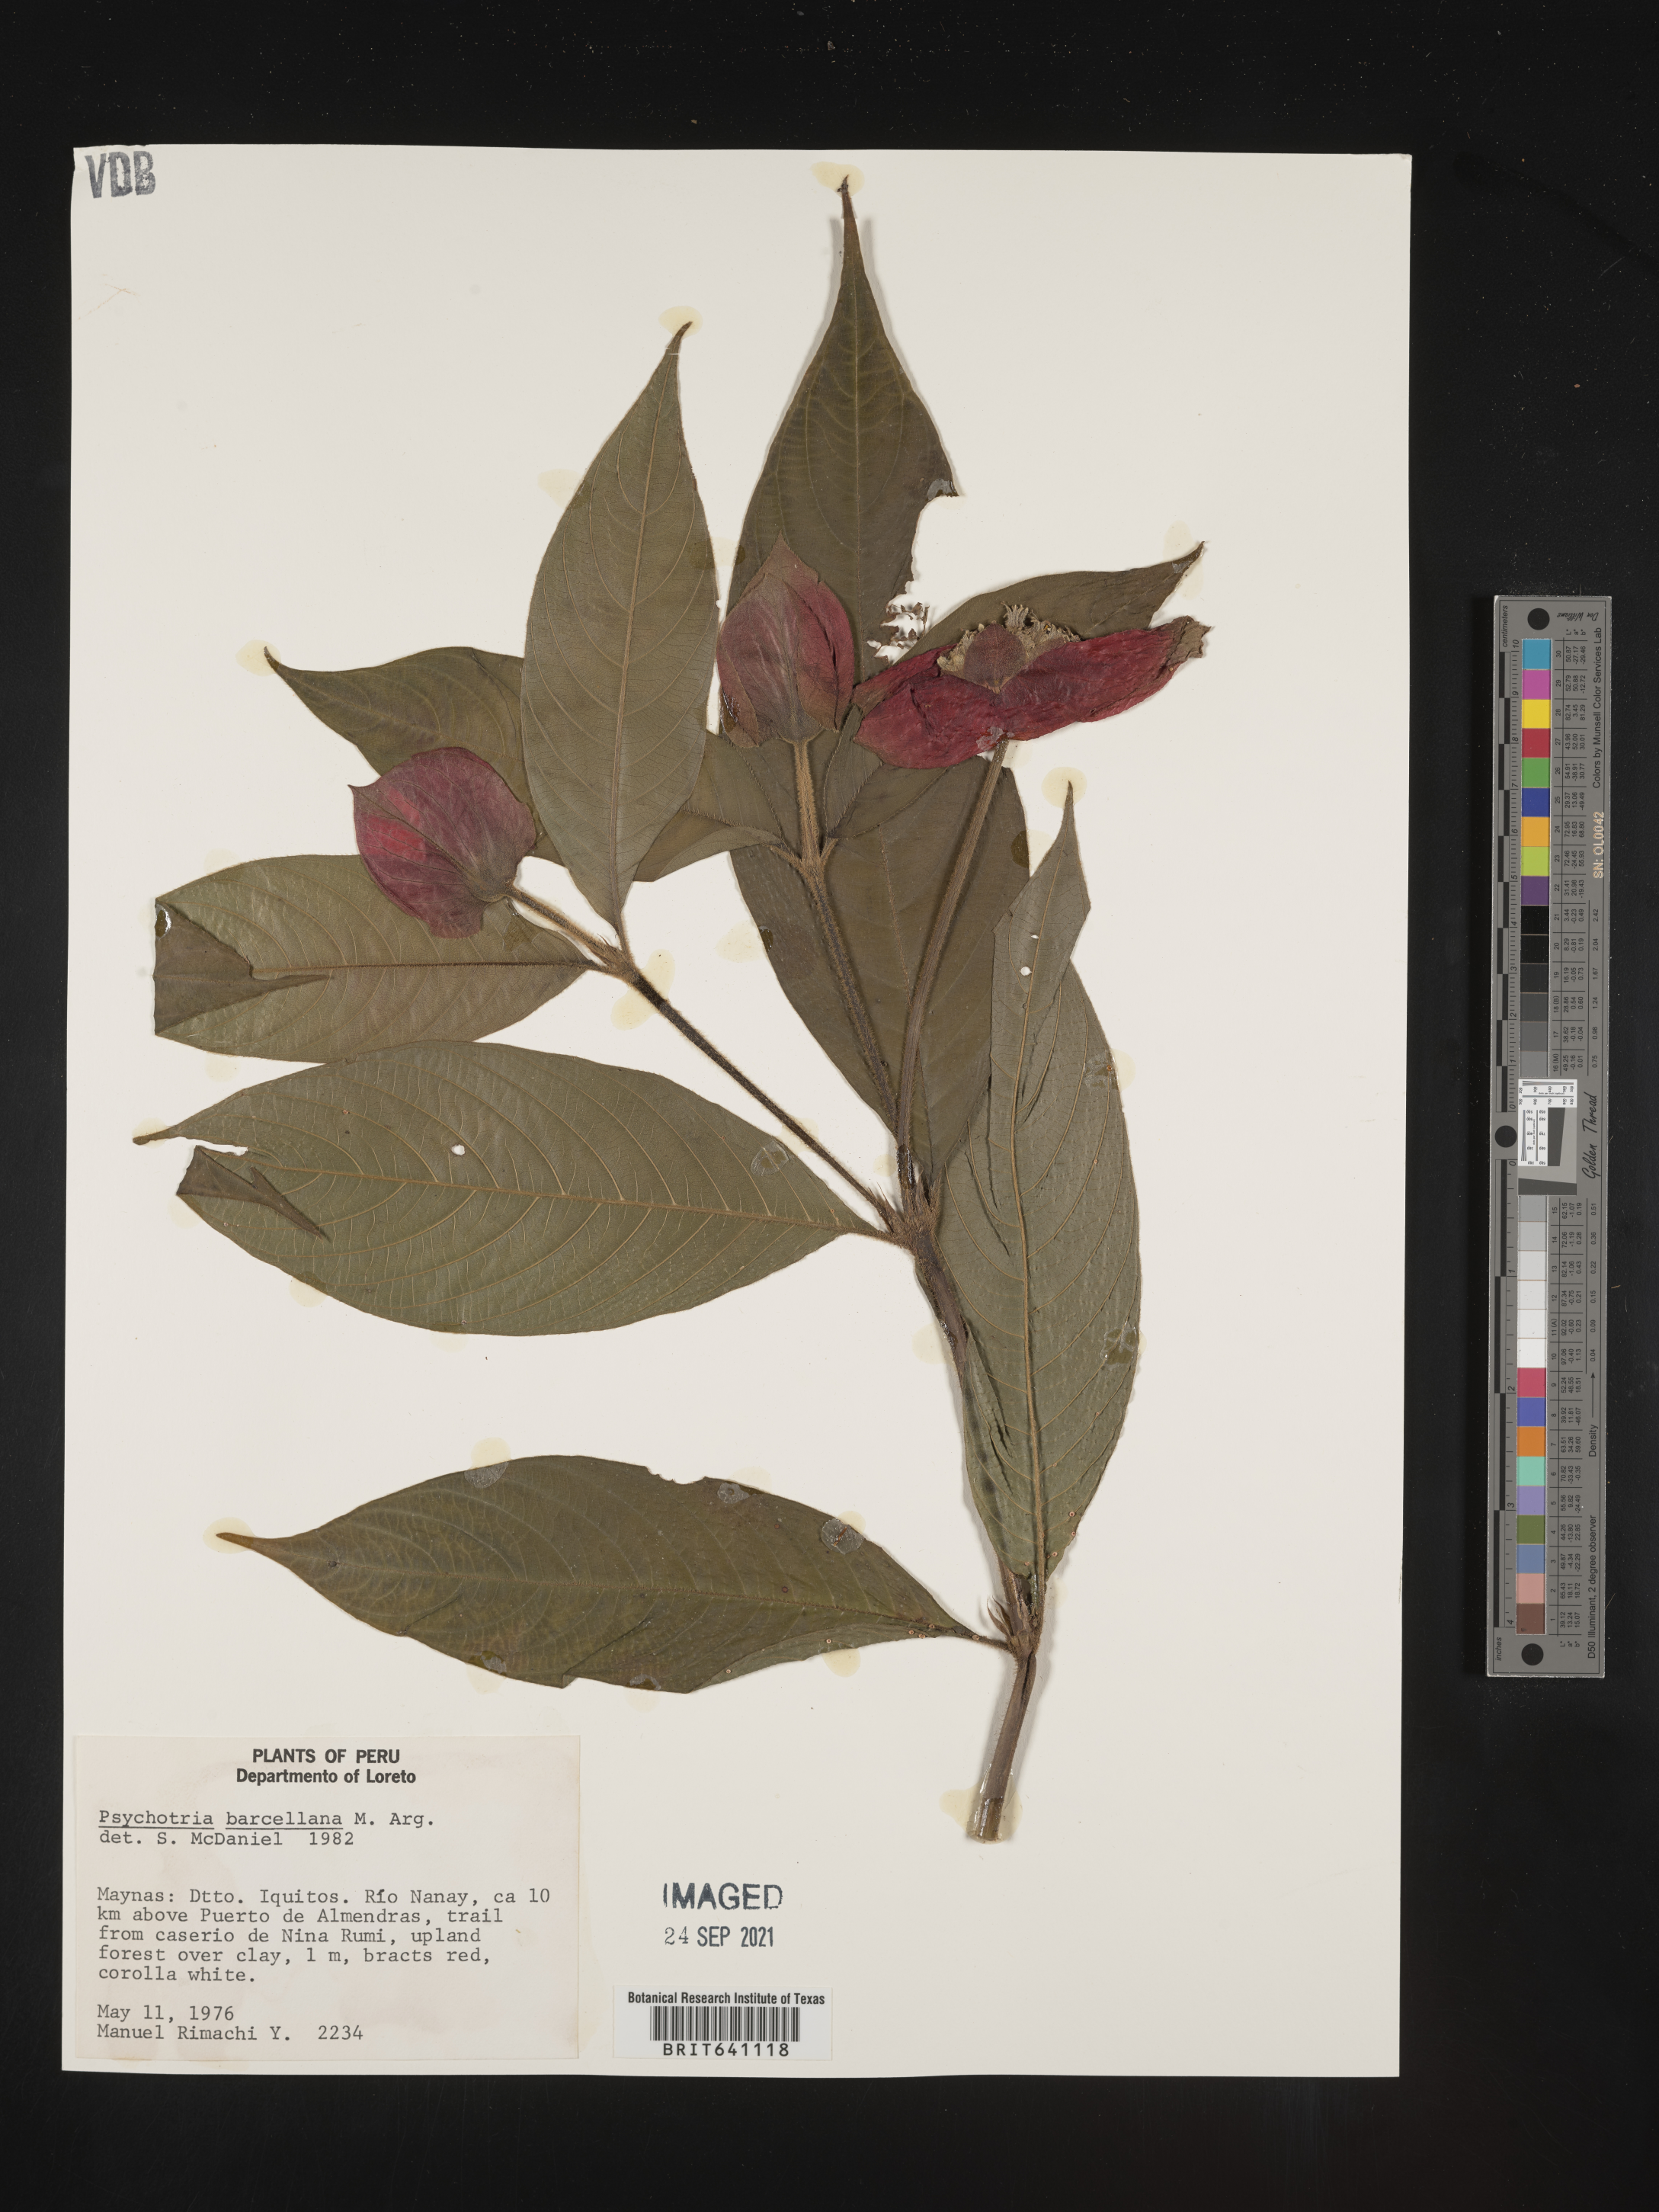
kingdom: Plantae
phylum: Tracheophyta
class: Magnoliopsida
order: Gentianales
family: Rubiaceae
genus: Psychotria
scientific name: Psychotria
